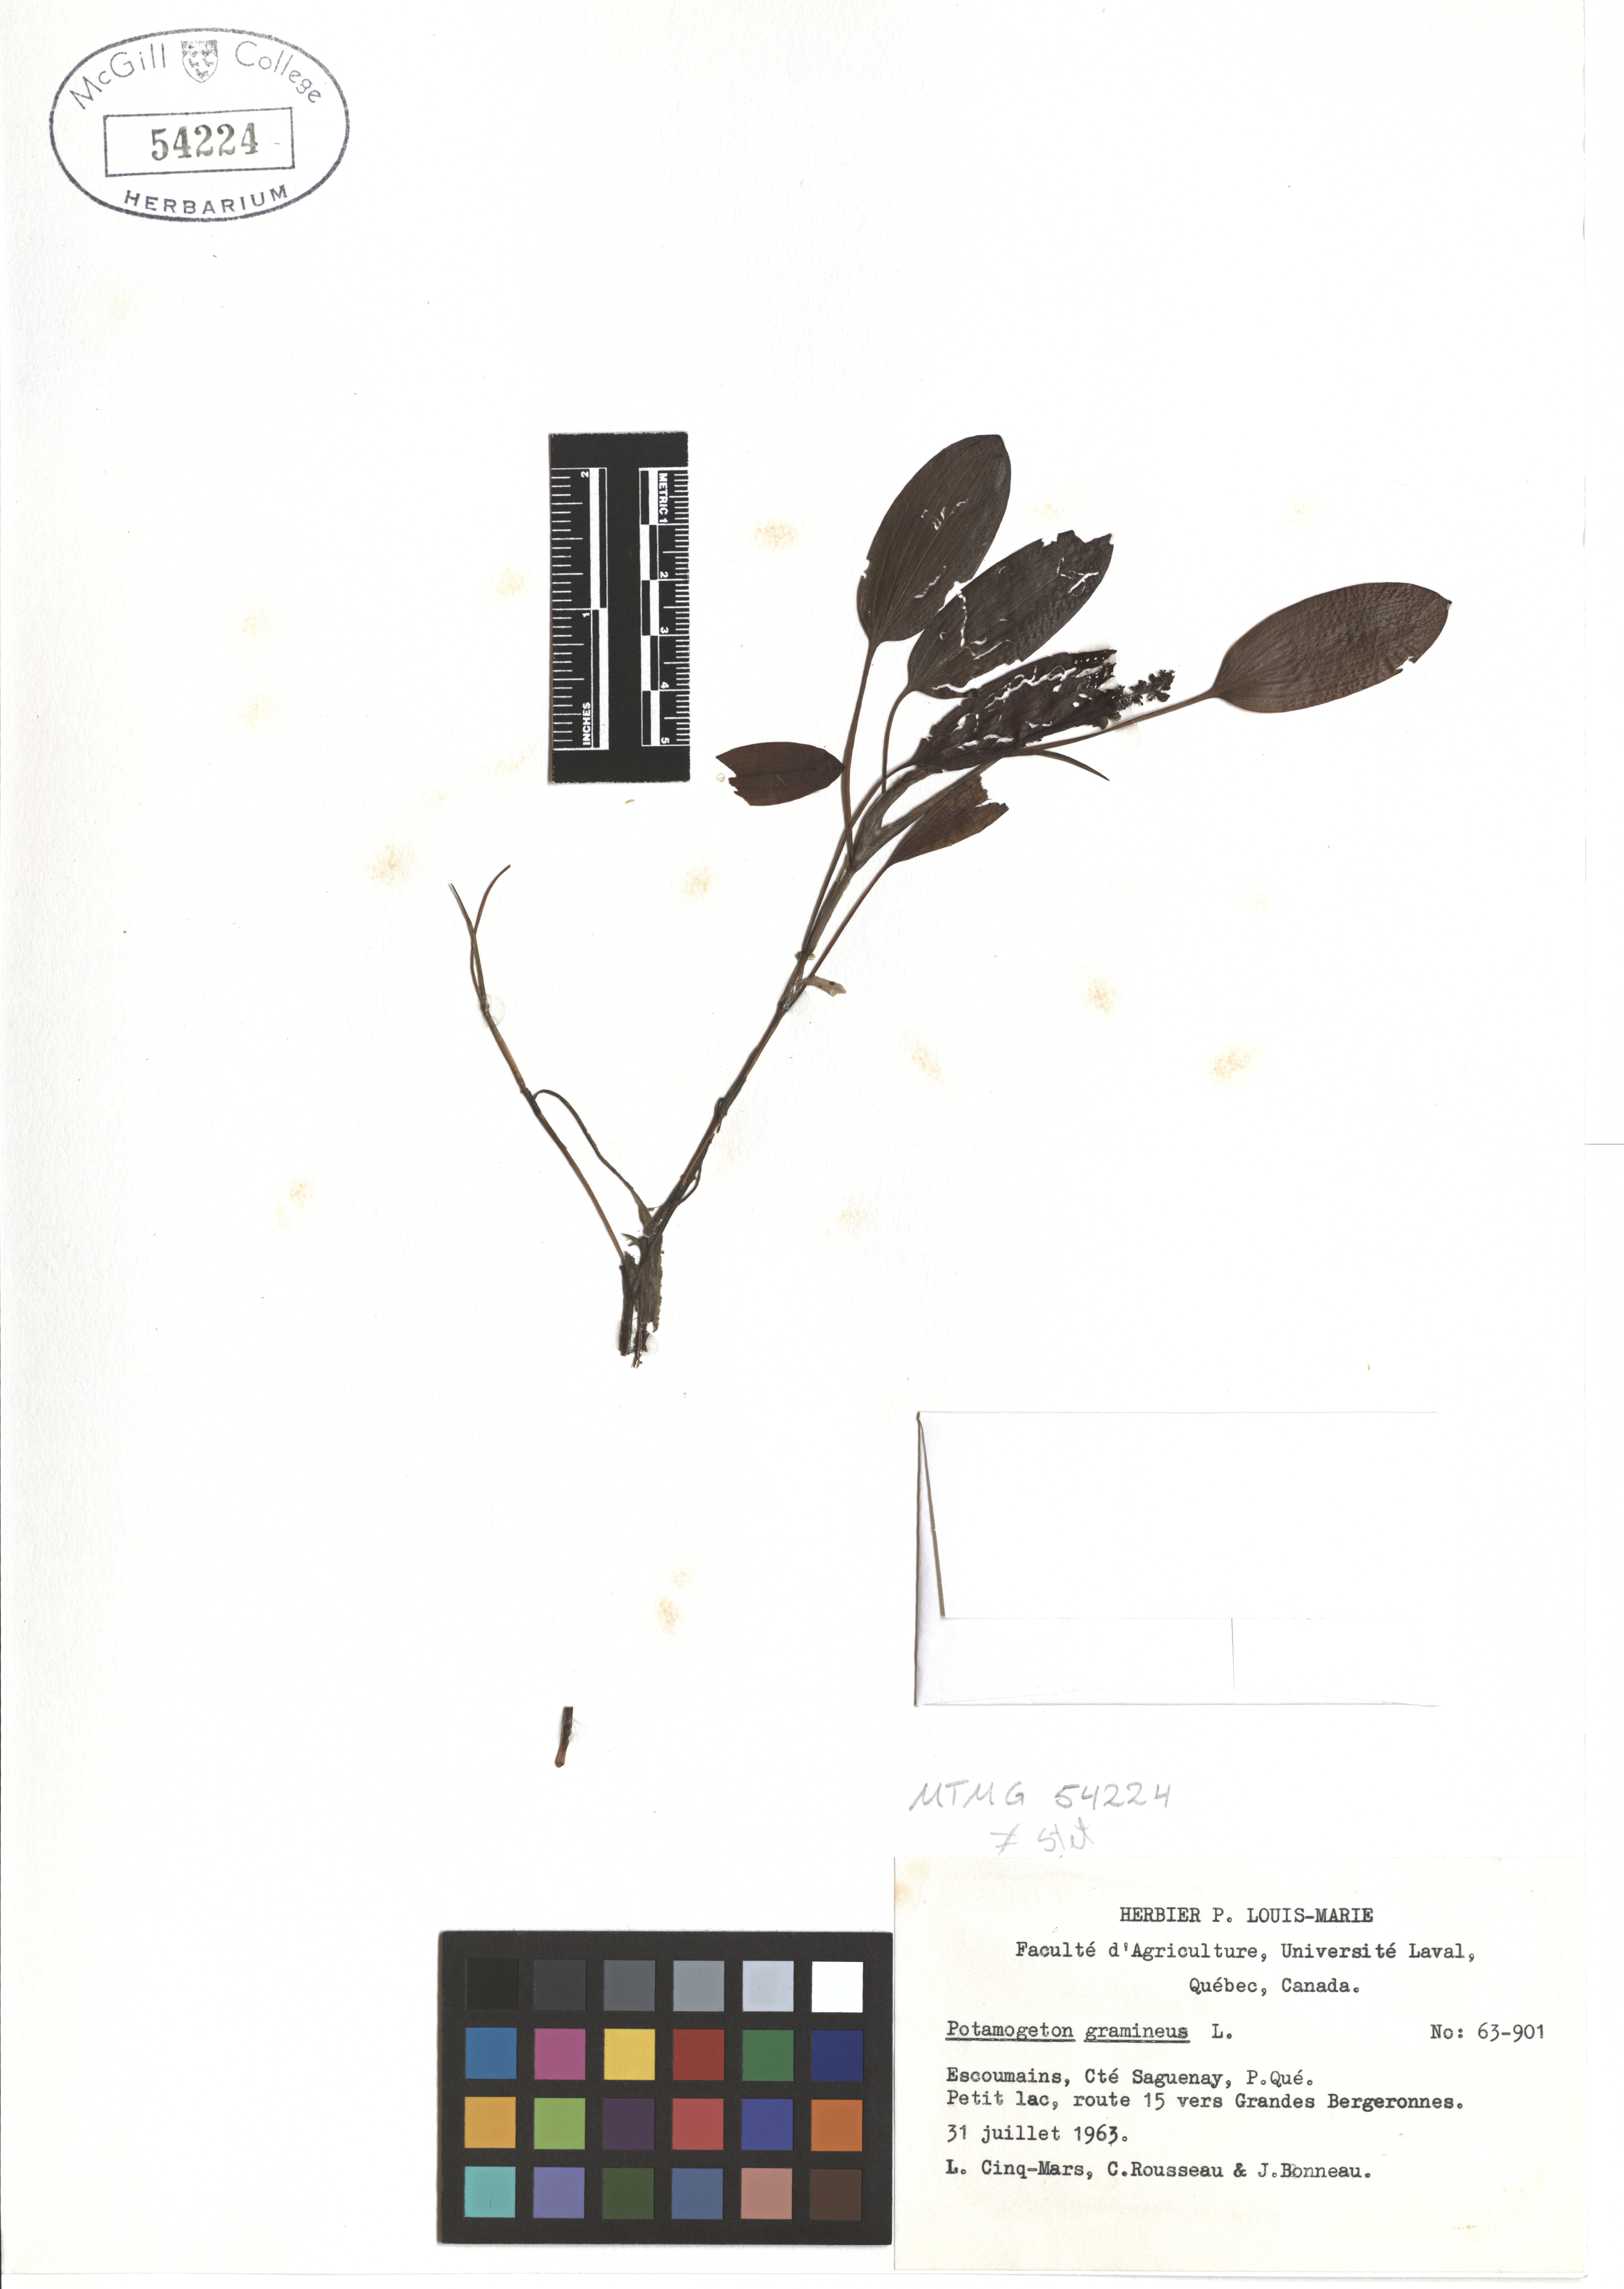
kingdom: Plantae
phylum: Tracheophyta
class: Liliopsida
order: Alismatales
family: Potamogetonaceae
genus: Potamogeton
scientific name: Potamogeton gramineus
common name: Various-leaved pondweed
